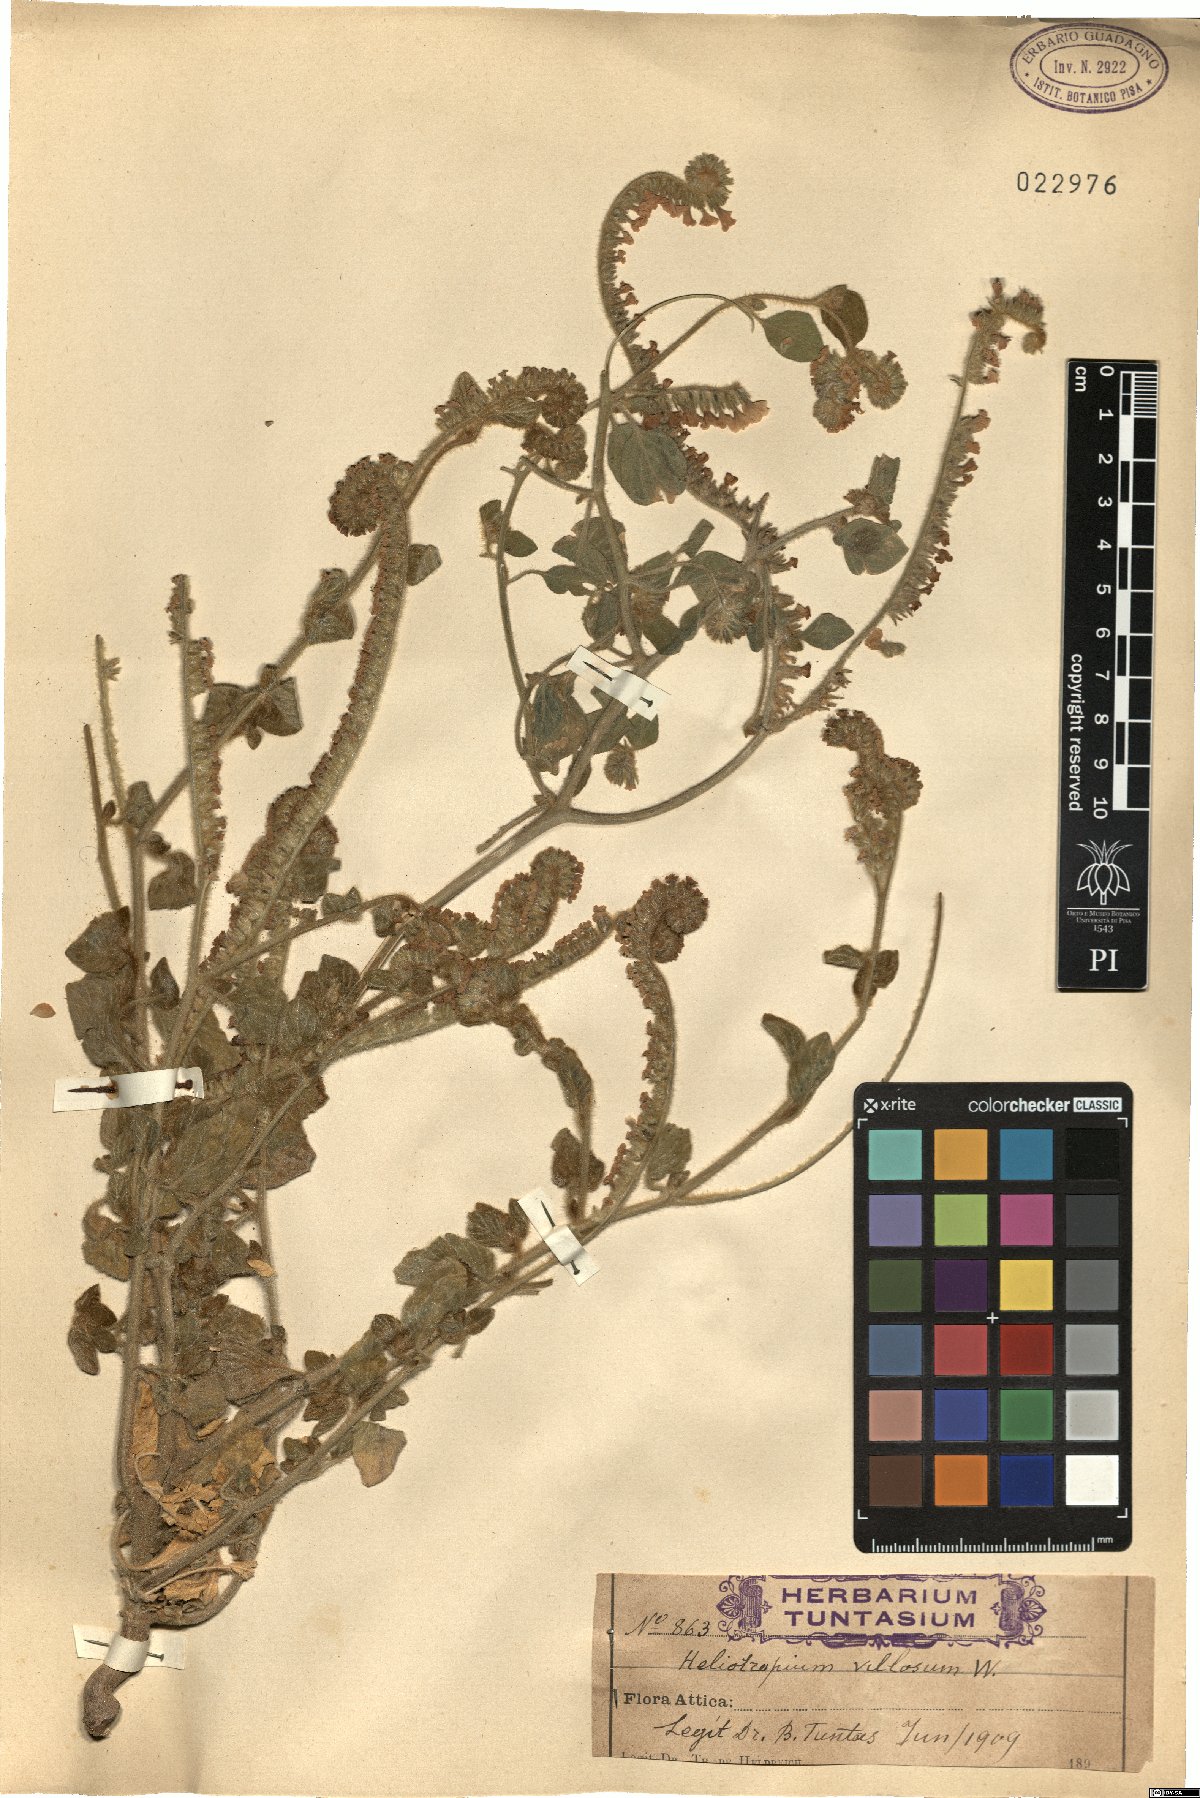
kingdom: Plantae
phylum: Tracheophyta
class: Magnoliopsida
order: Boraginales
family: Heliotropiaceae
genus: Euploca
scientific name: Euploca ovalifolia
